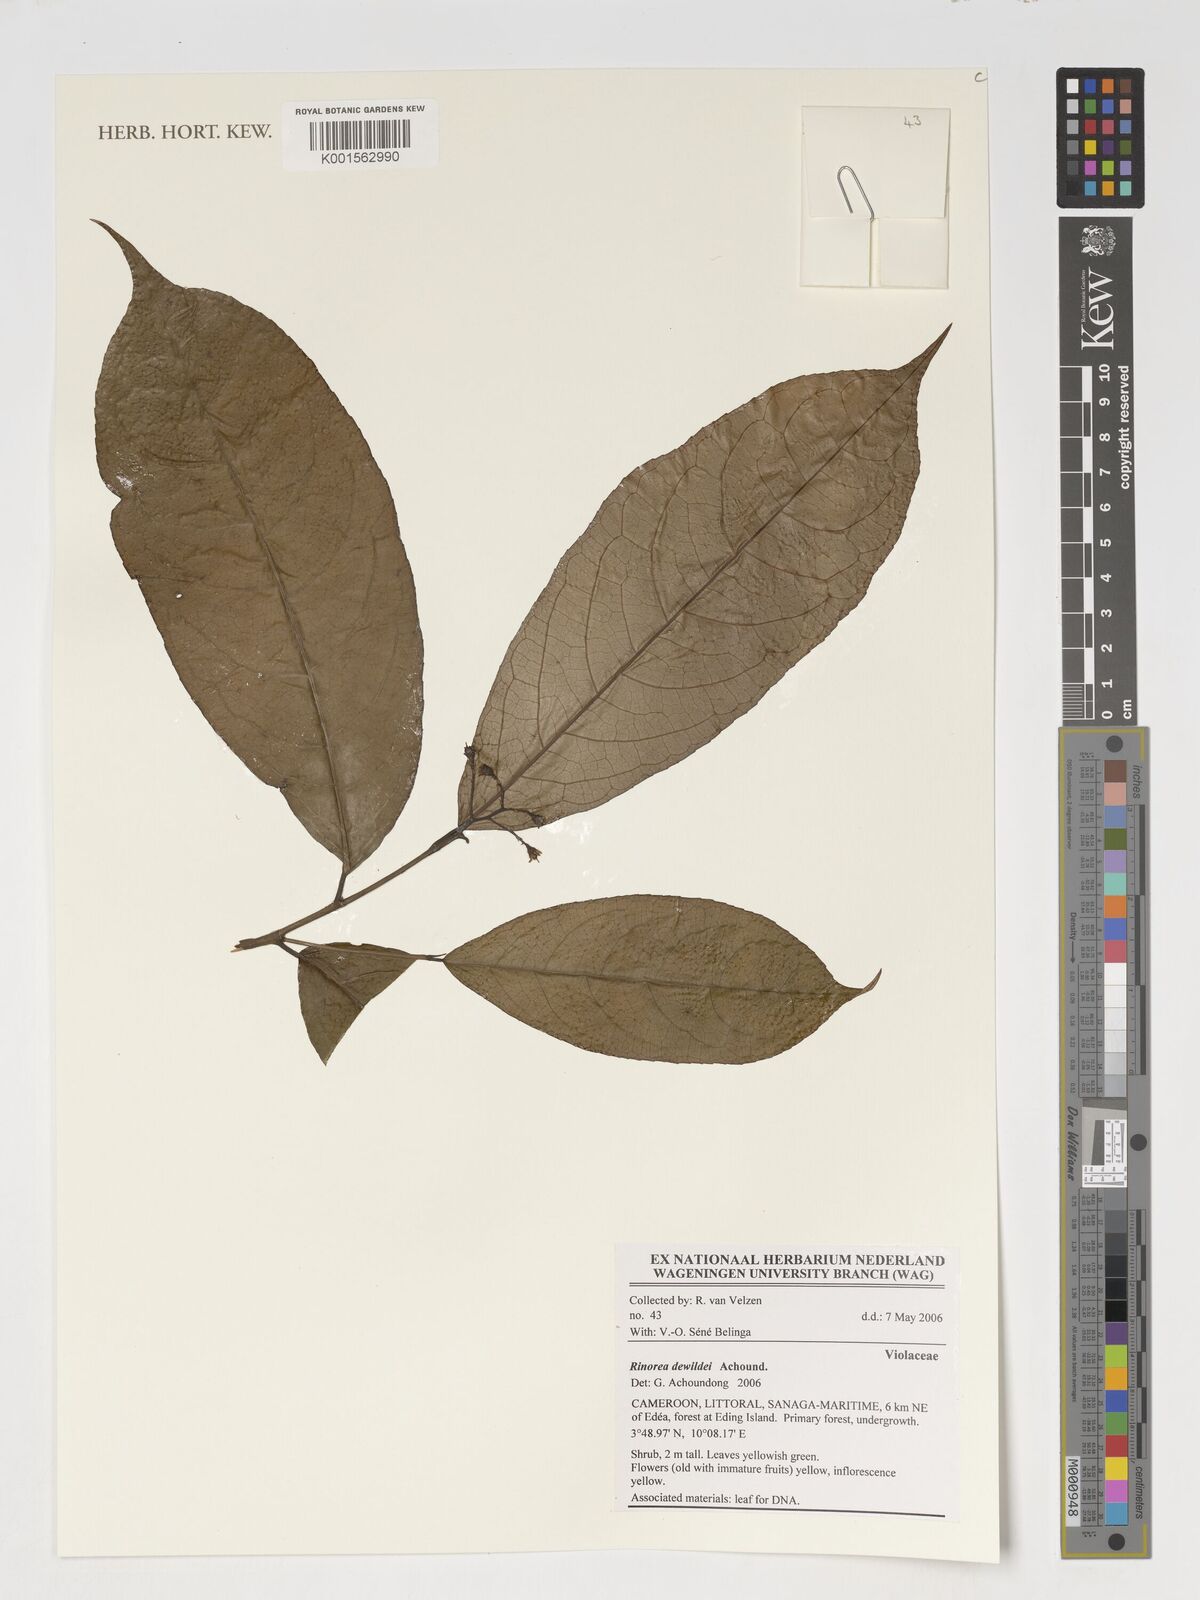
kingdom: Plantae
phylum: Tracheophyta
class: Magnoliopsida
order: Malpighiales
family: Violaceae
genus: Rinorea
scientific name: Rinorea
